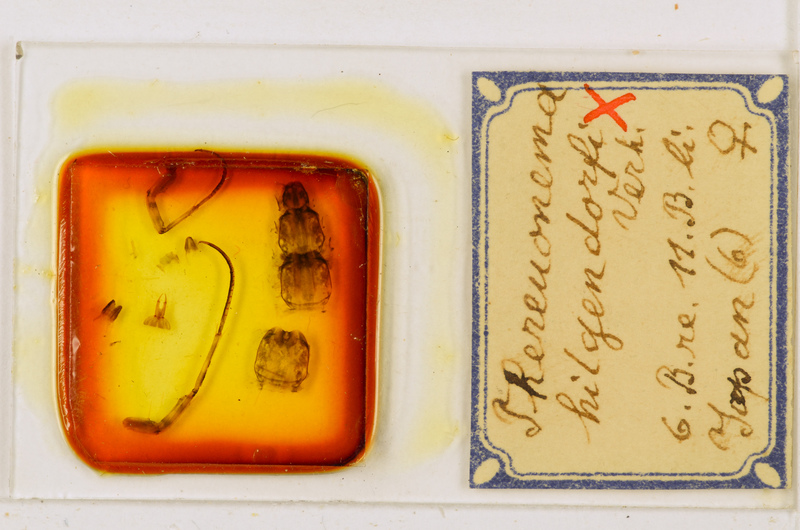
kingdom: Animalia
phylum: Arthropoda
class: Chilopoda
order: Scutigeromorpha
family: Scutigeridae
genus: Thereuonema
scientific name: Thereuonema tuberculata
